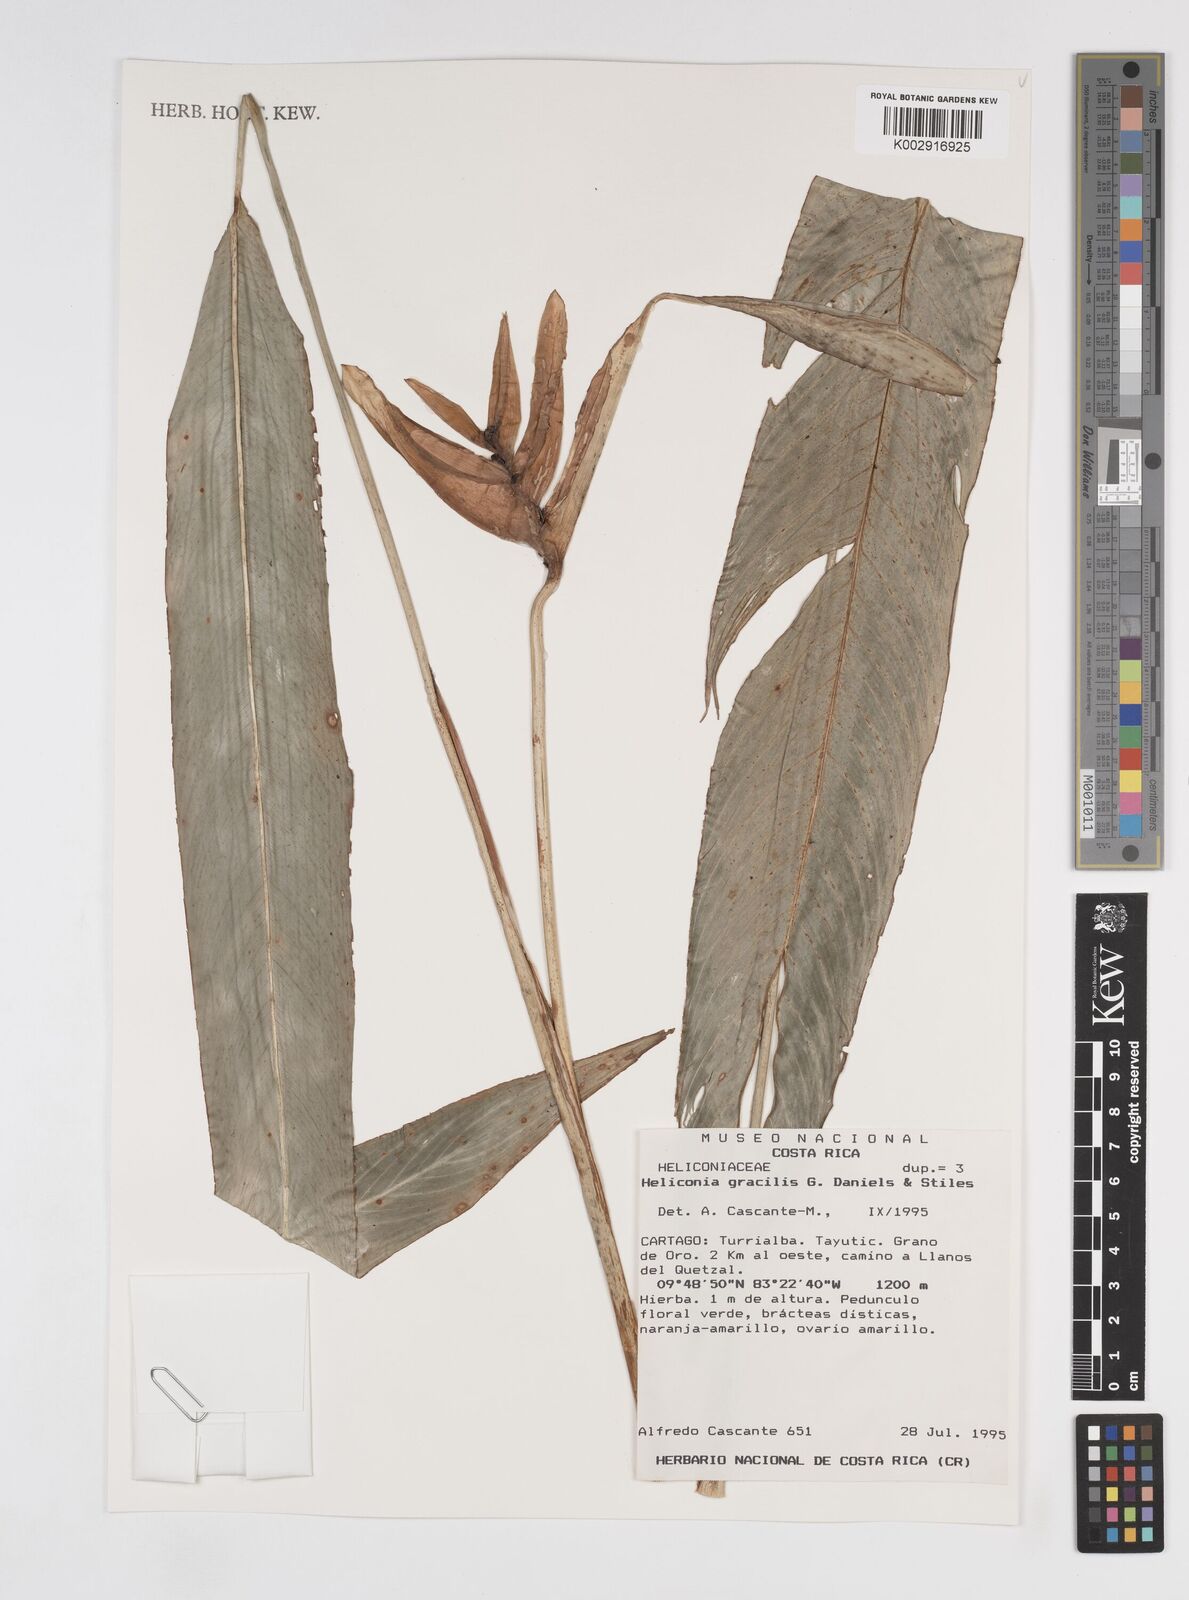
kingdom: Plantae
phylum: Tracheophyta
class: Liliopsida
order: Zingiberales
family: Heliconiaceae
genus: Heliconia
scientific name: Heliconia gracilis
